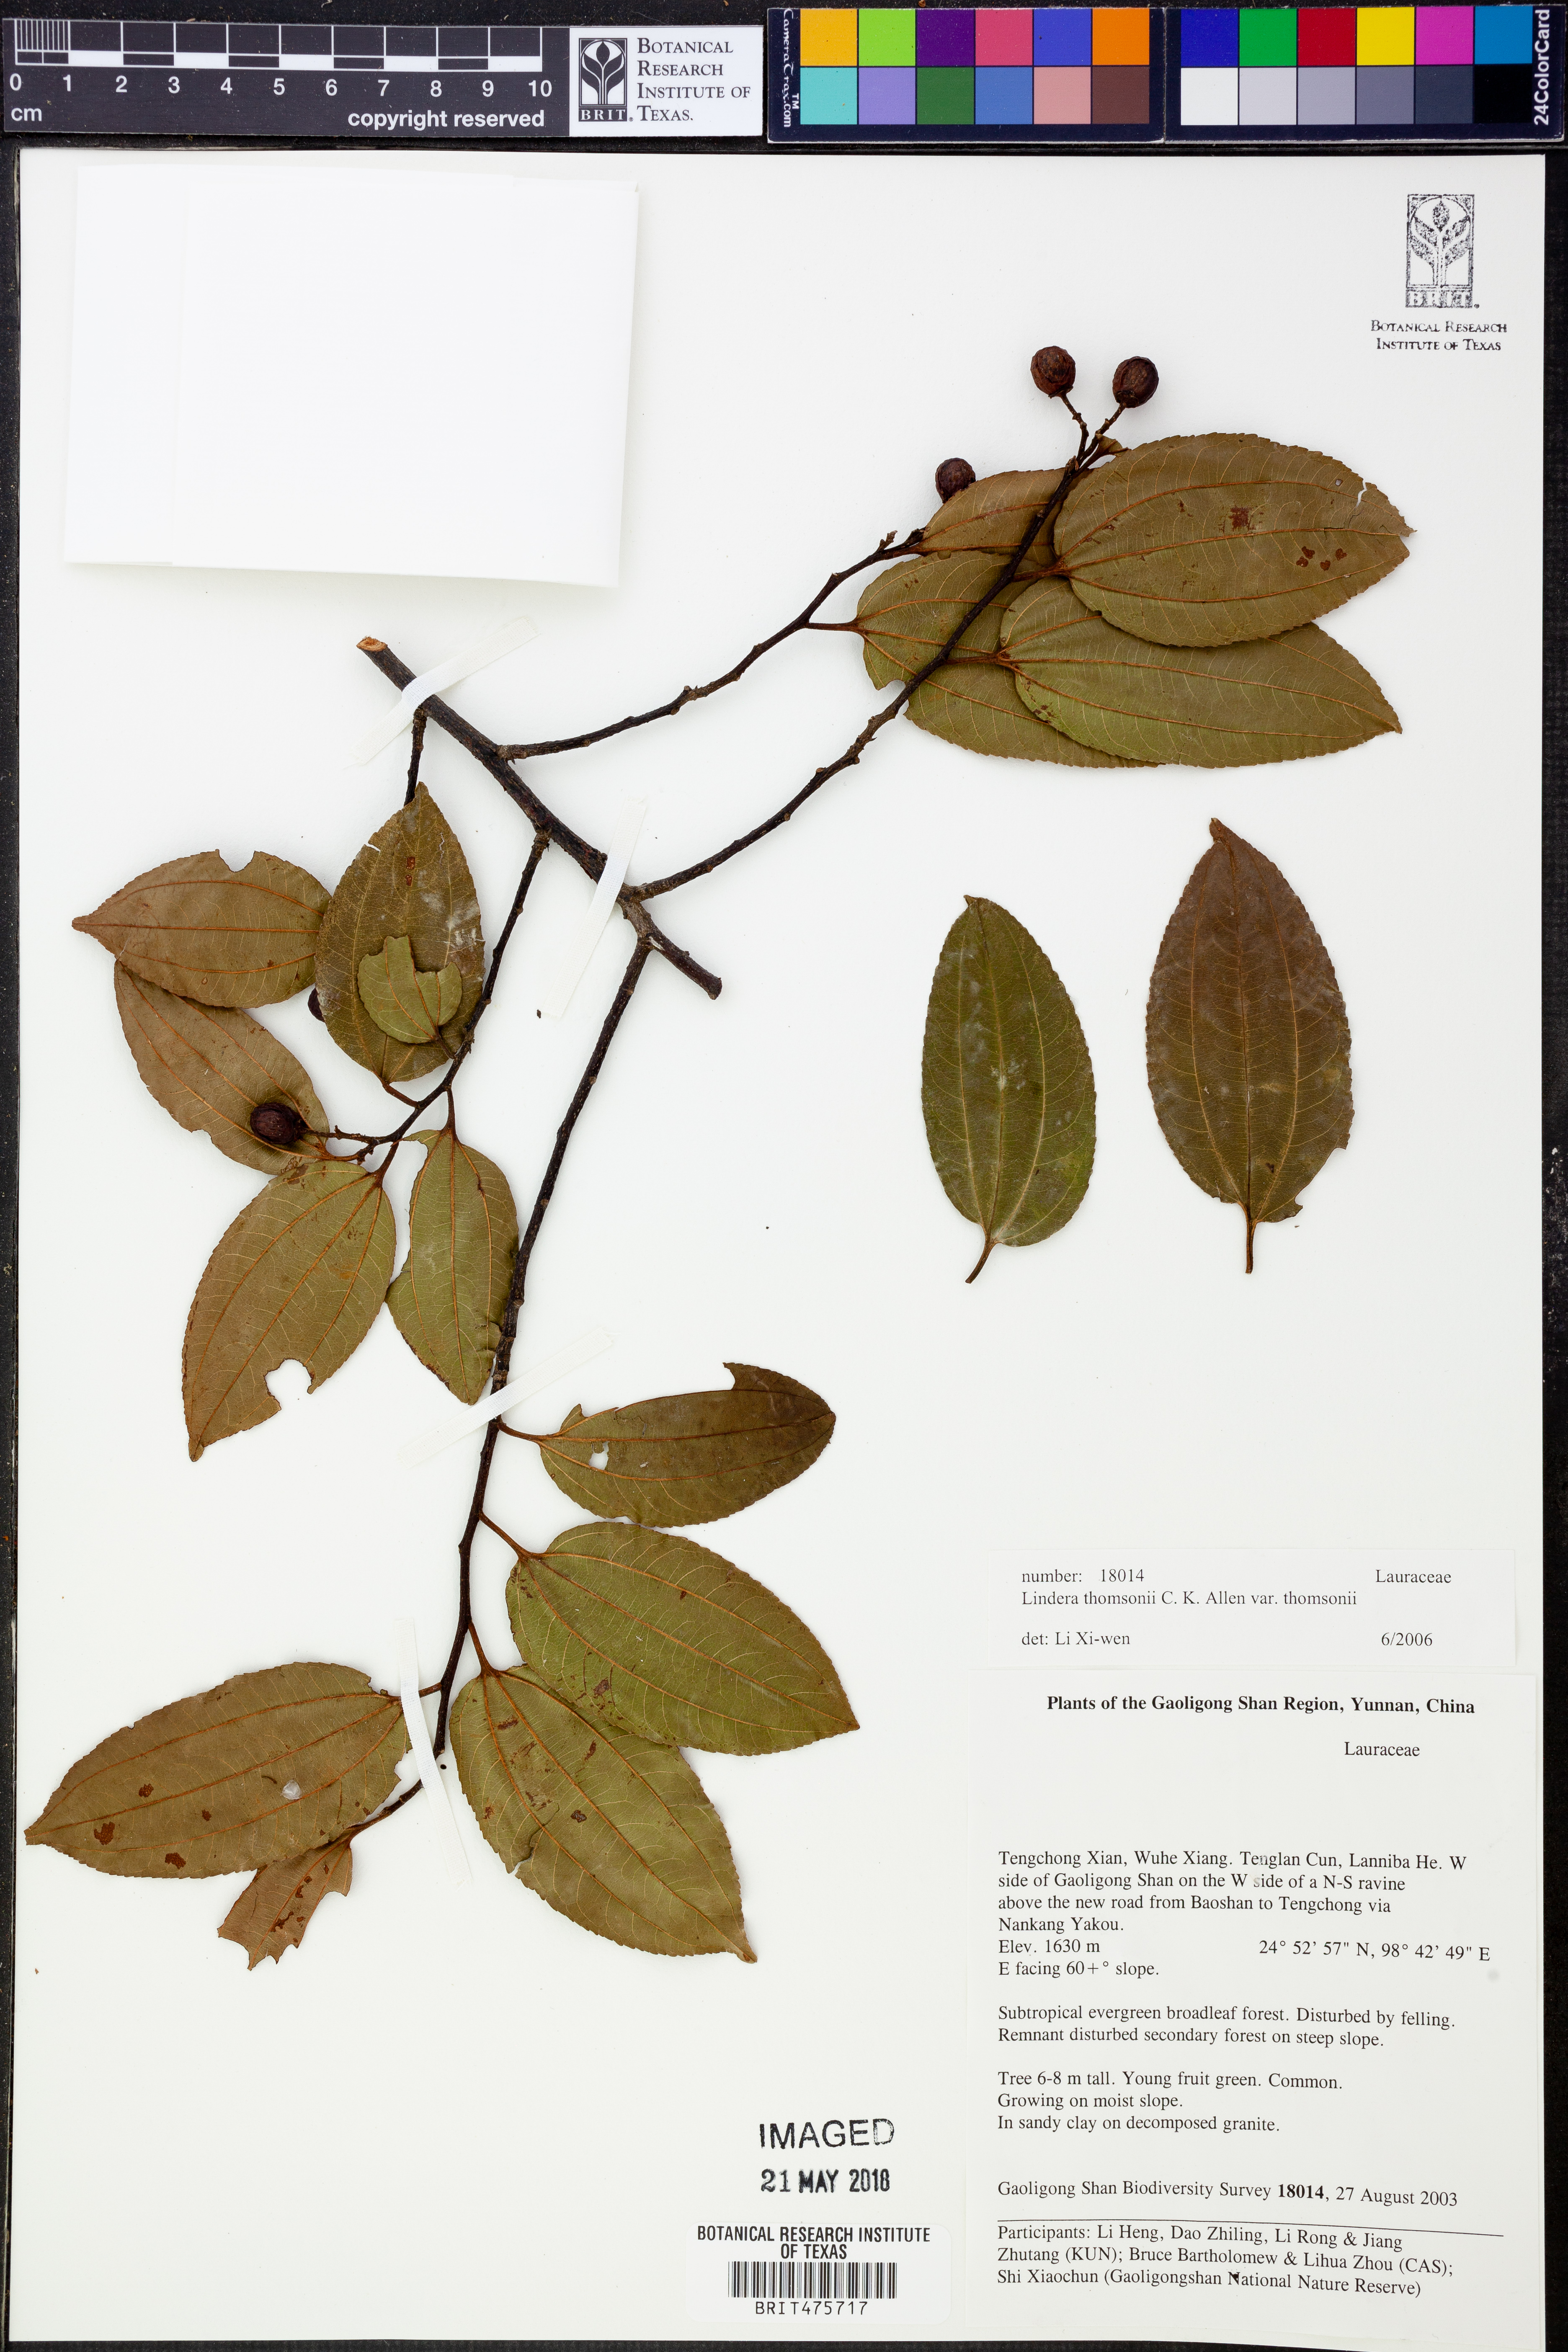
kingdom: Plantae
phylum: Tracheophyta
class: Magnoliopsida
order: Laurales
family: Lauraceae
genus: Lindera
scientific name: Lindera thomsonii
